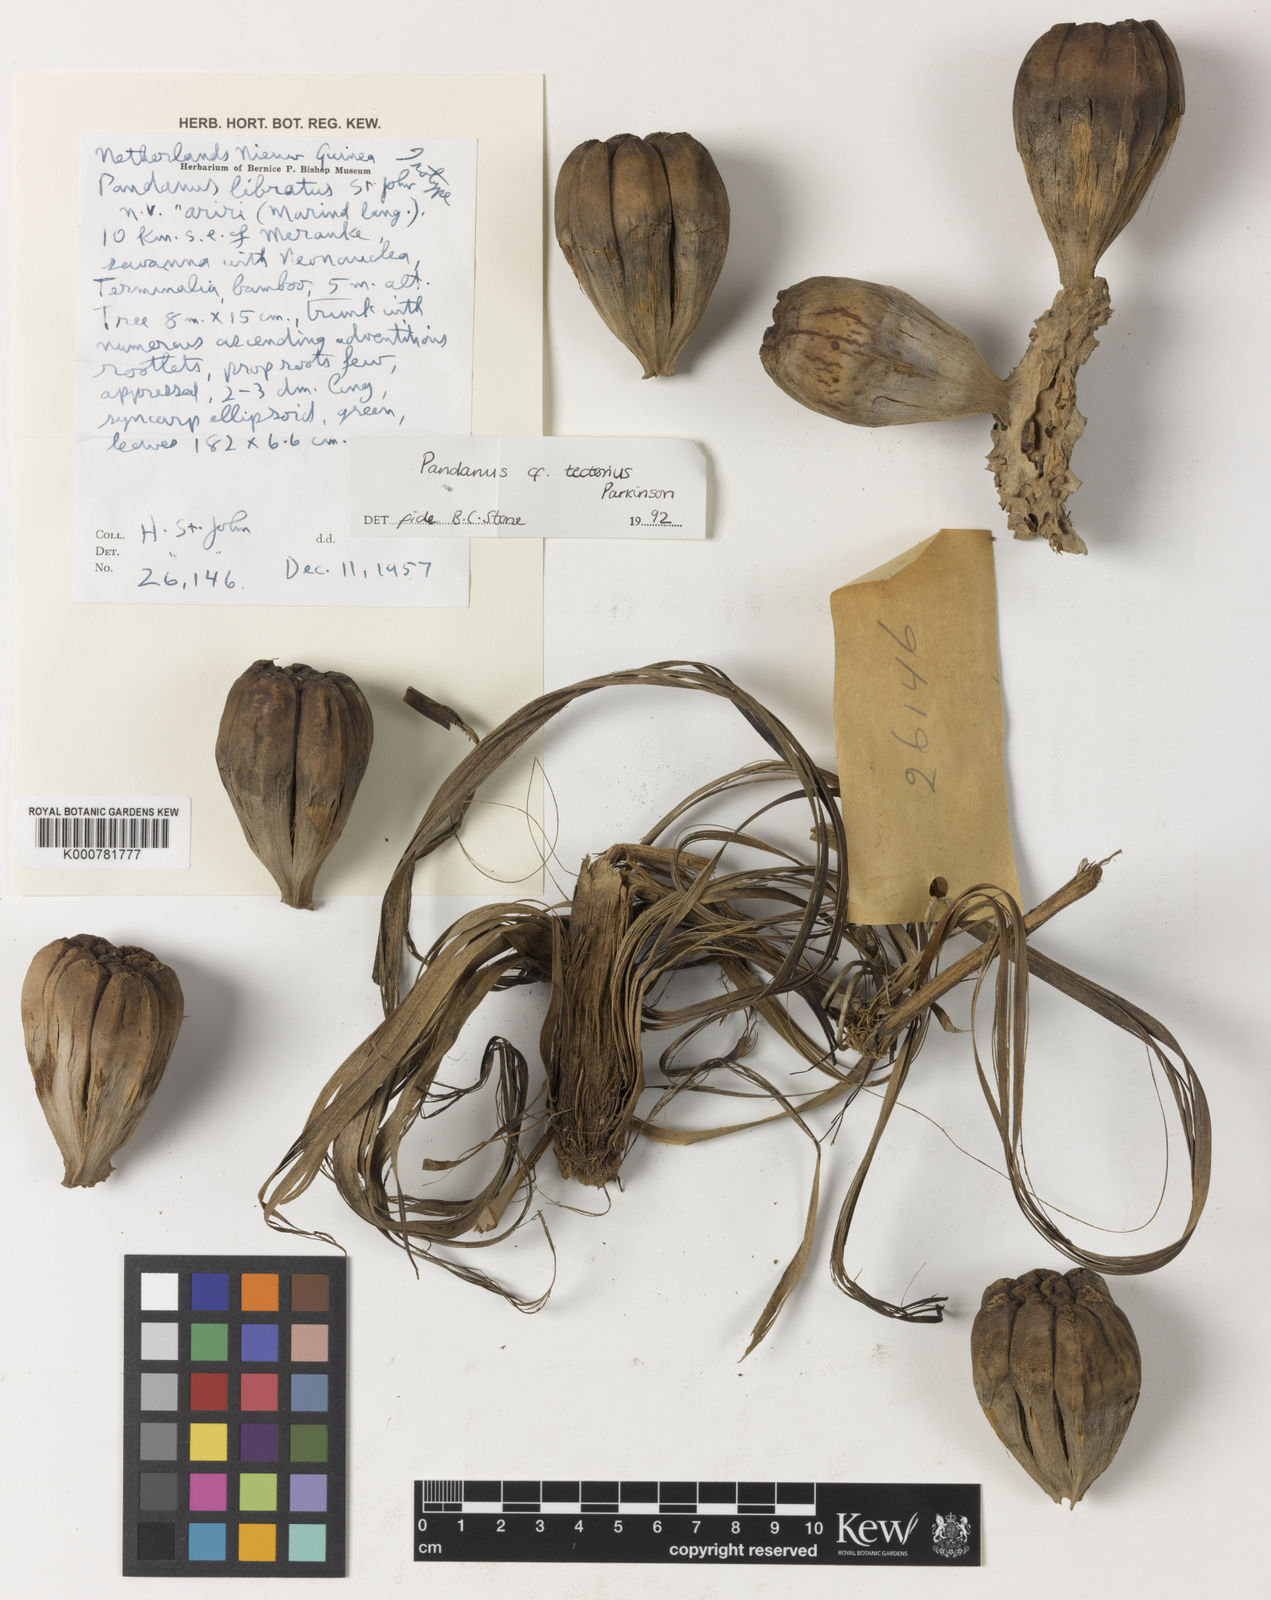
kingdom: Plantae
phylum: Tracheophyta
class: Liliopsida
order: Pandanales
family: Pandanaceae
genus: Pandanus
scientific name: Pandanus
